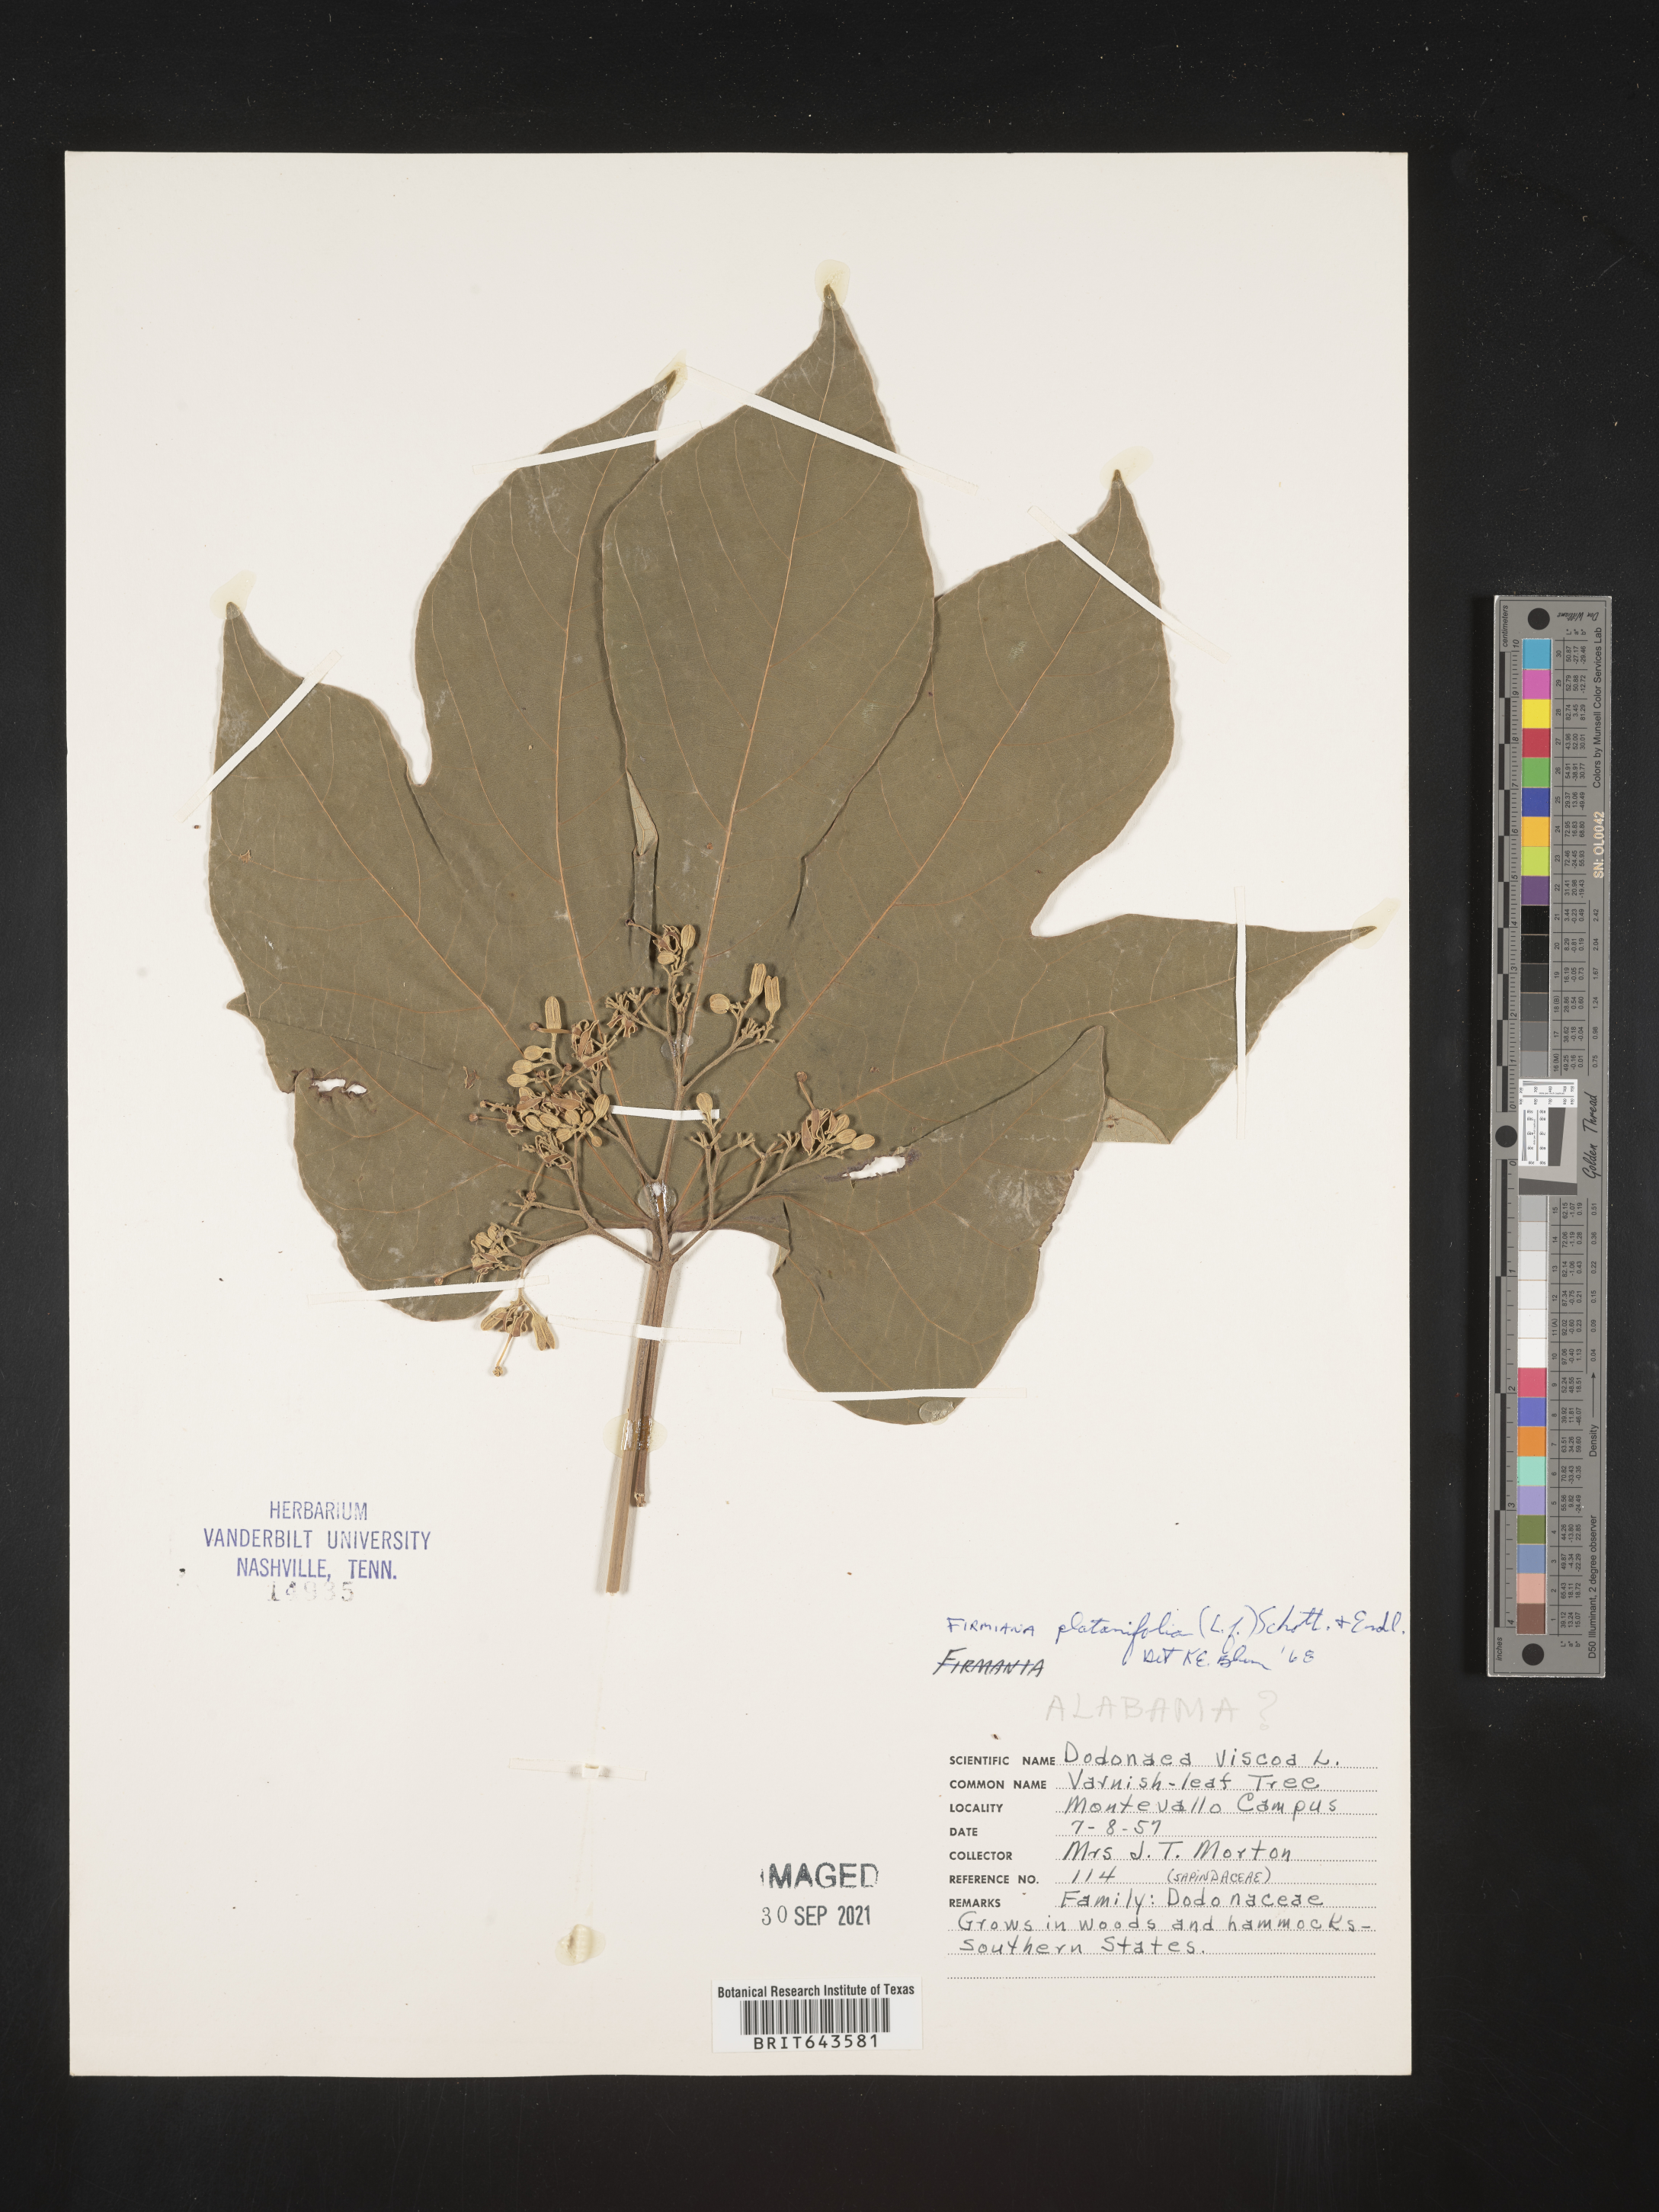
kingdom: Plantae
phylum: Tracheophyta
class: Magnoliopsida
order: Malvales
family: Malvaceae
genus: Firmiana
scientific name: Firmiana
